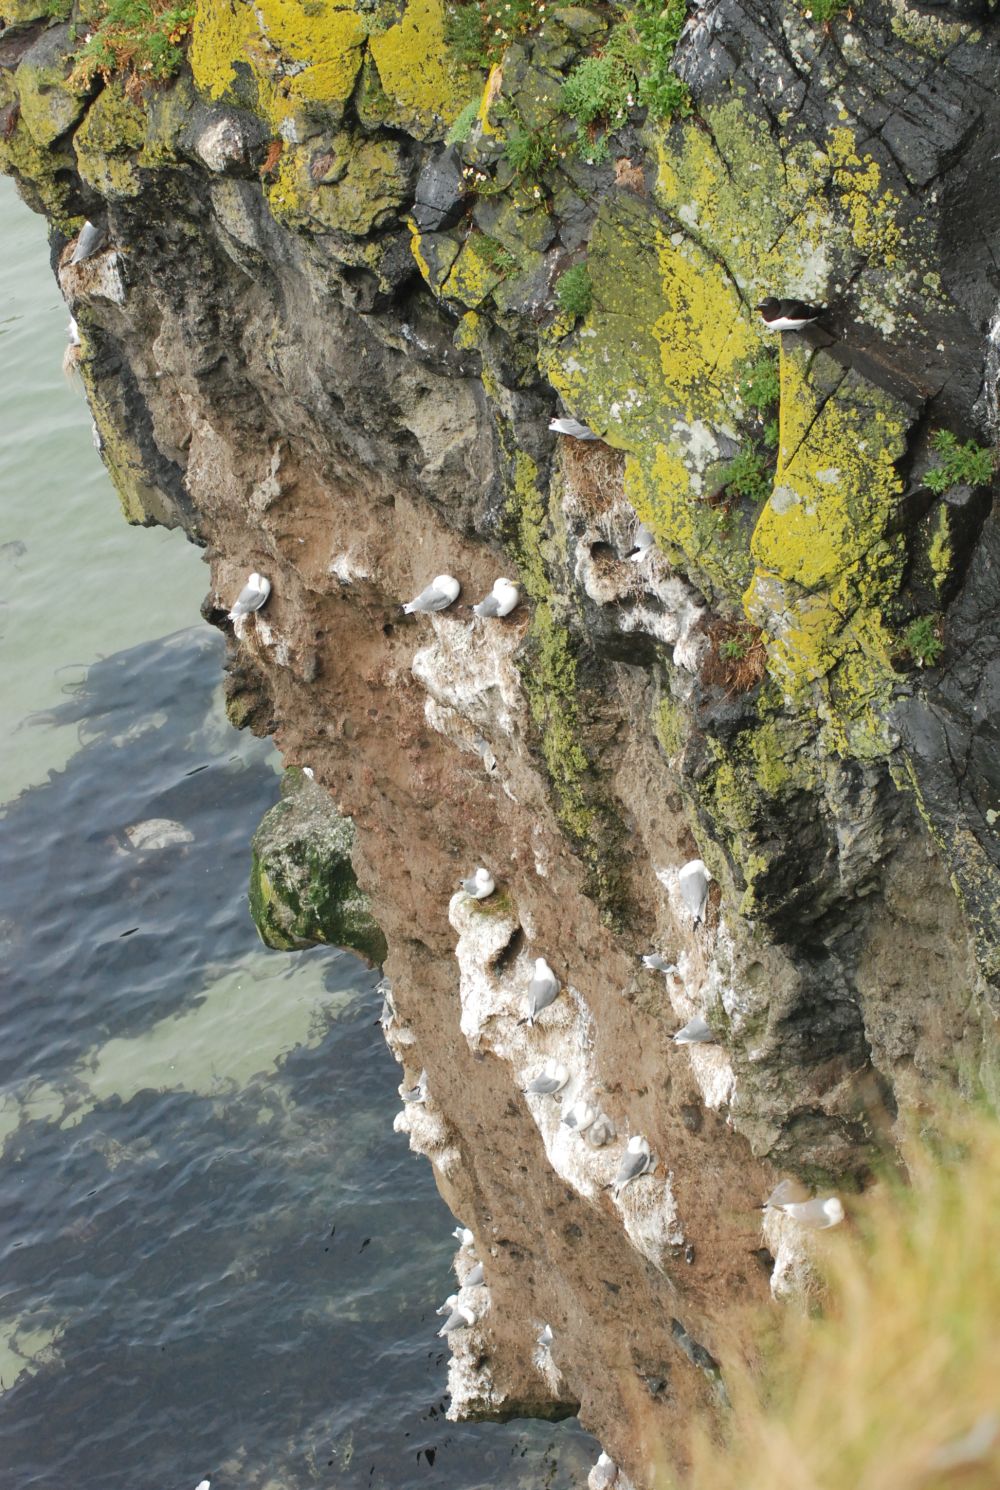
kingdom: Animalia
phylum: Chordata
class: Aves
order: Charadriiformes
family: Laridae
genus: Larus
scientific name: Larus argentatus
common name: Herring gull
